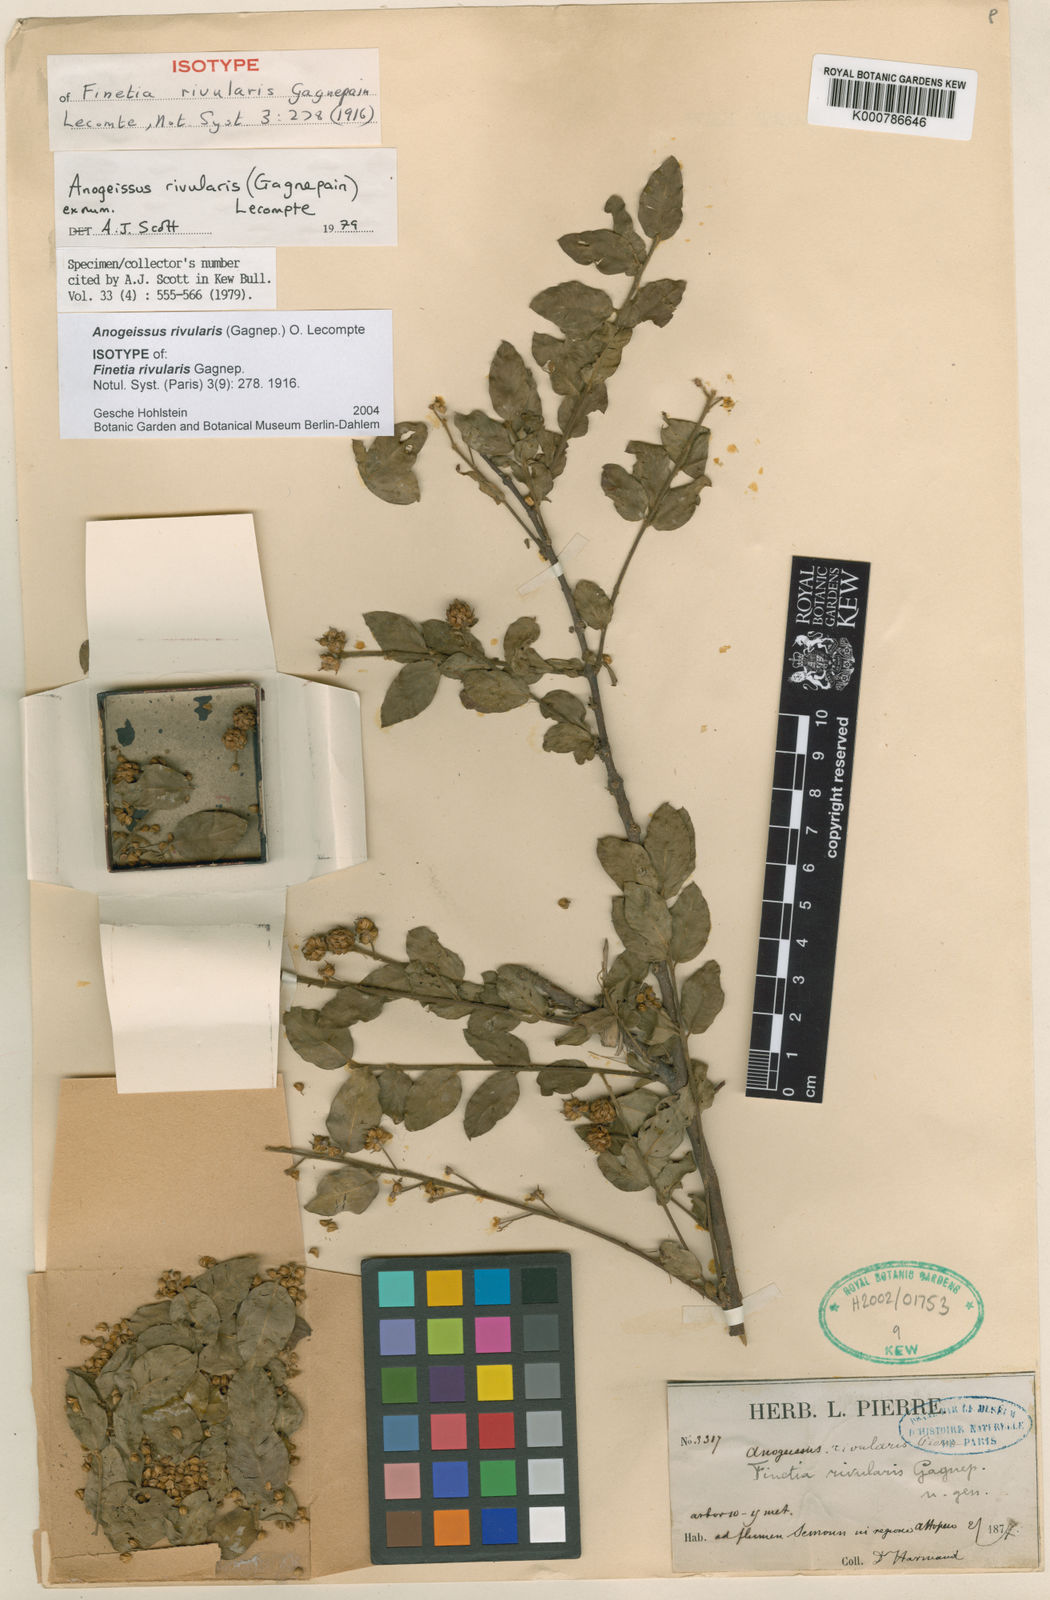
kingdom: Plantae
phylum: Tracheophyta
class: Magnoliopsida
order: Myrtales
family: Combretaceae
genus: Terminalia
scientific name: Terminalia rivularis
